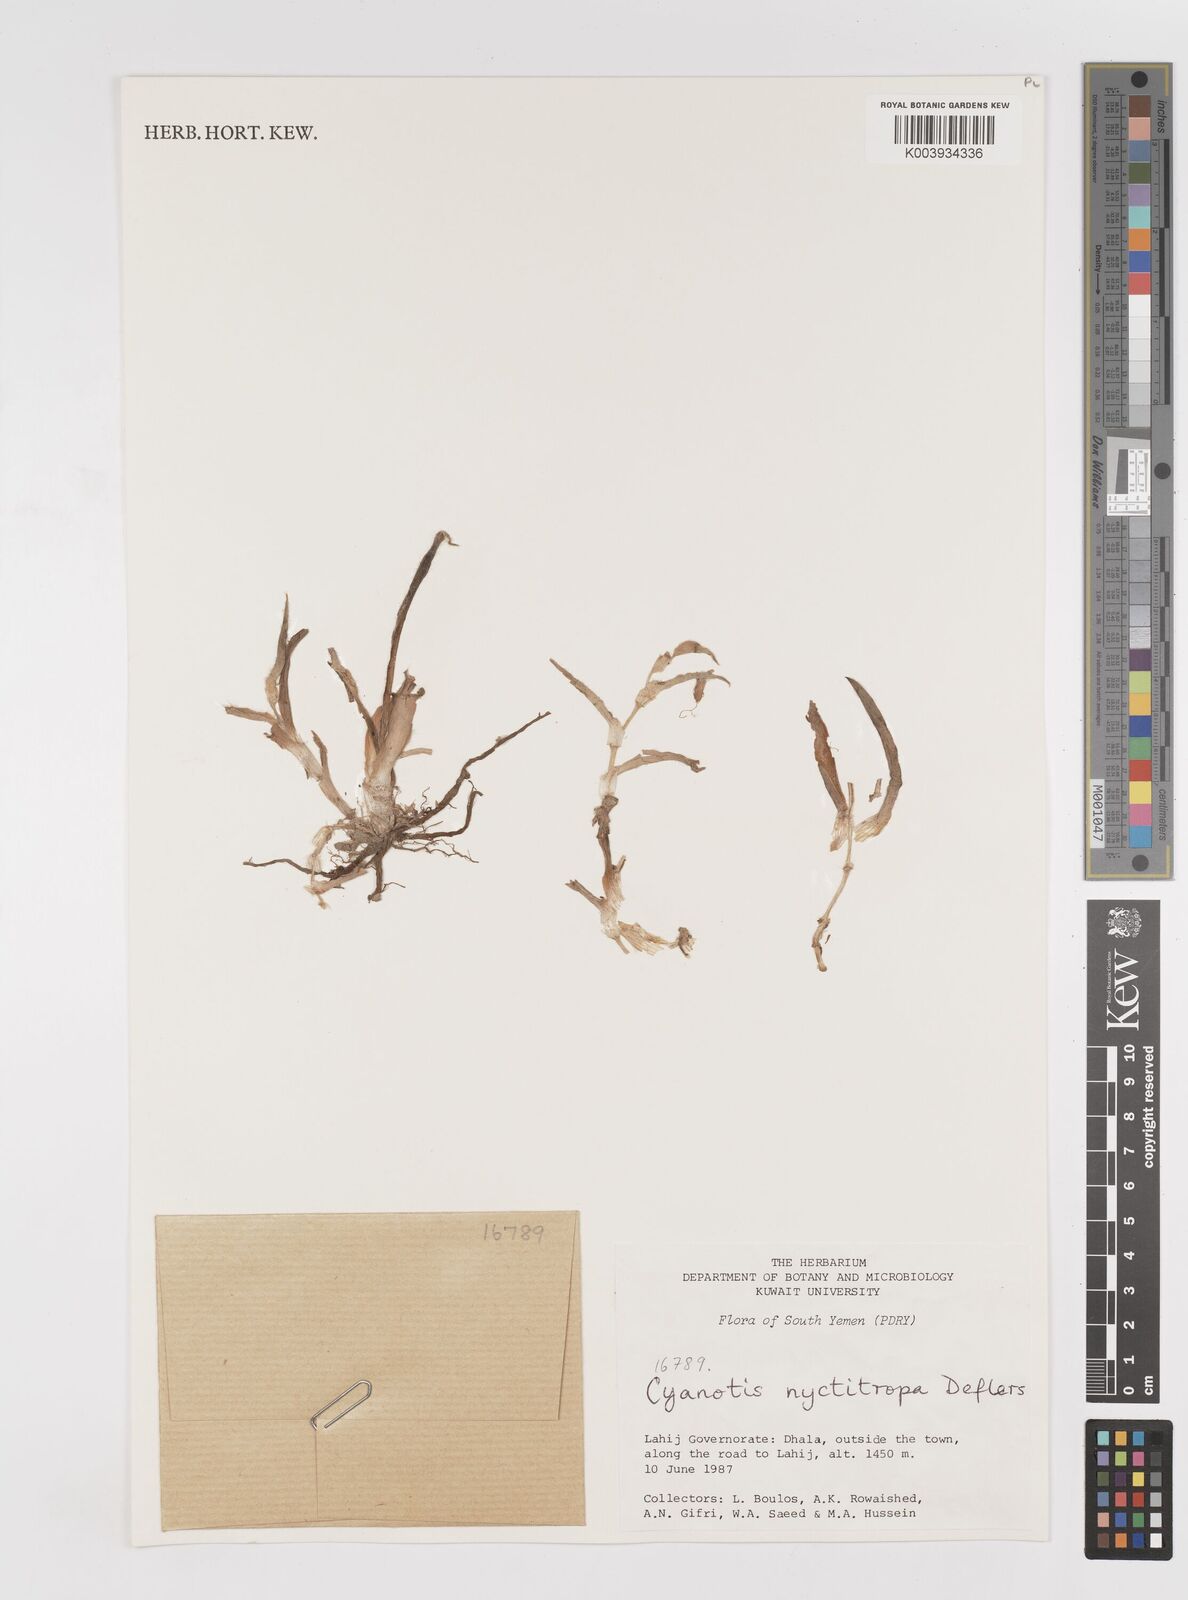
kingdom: Plantae
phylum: Tracheophyta
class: Liliopsida
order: Commelinales
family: Commelinaceae
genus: Cyanotis
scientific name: Cyanotis nyctitropa
